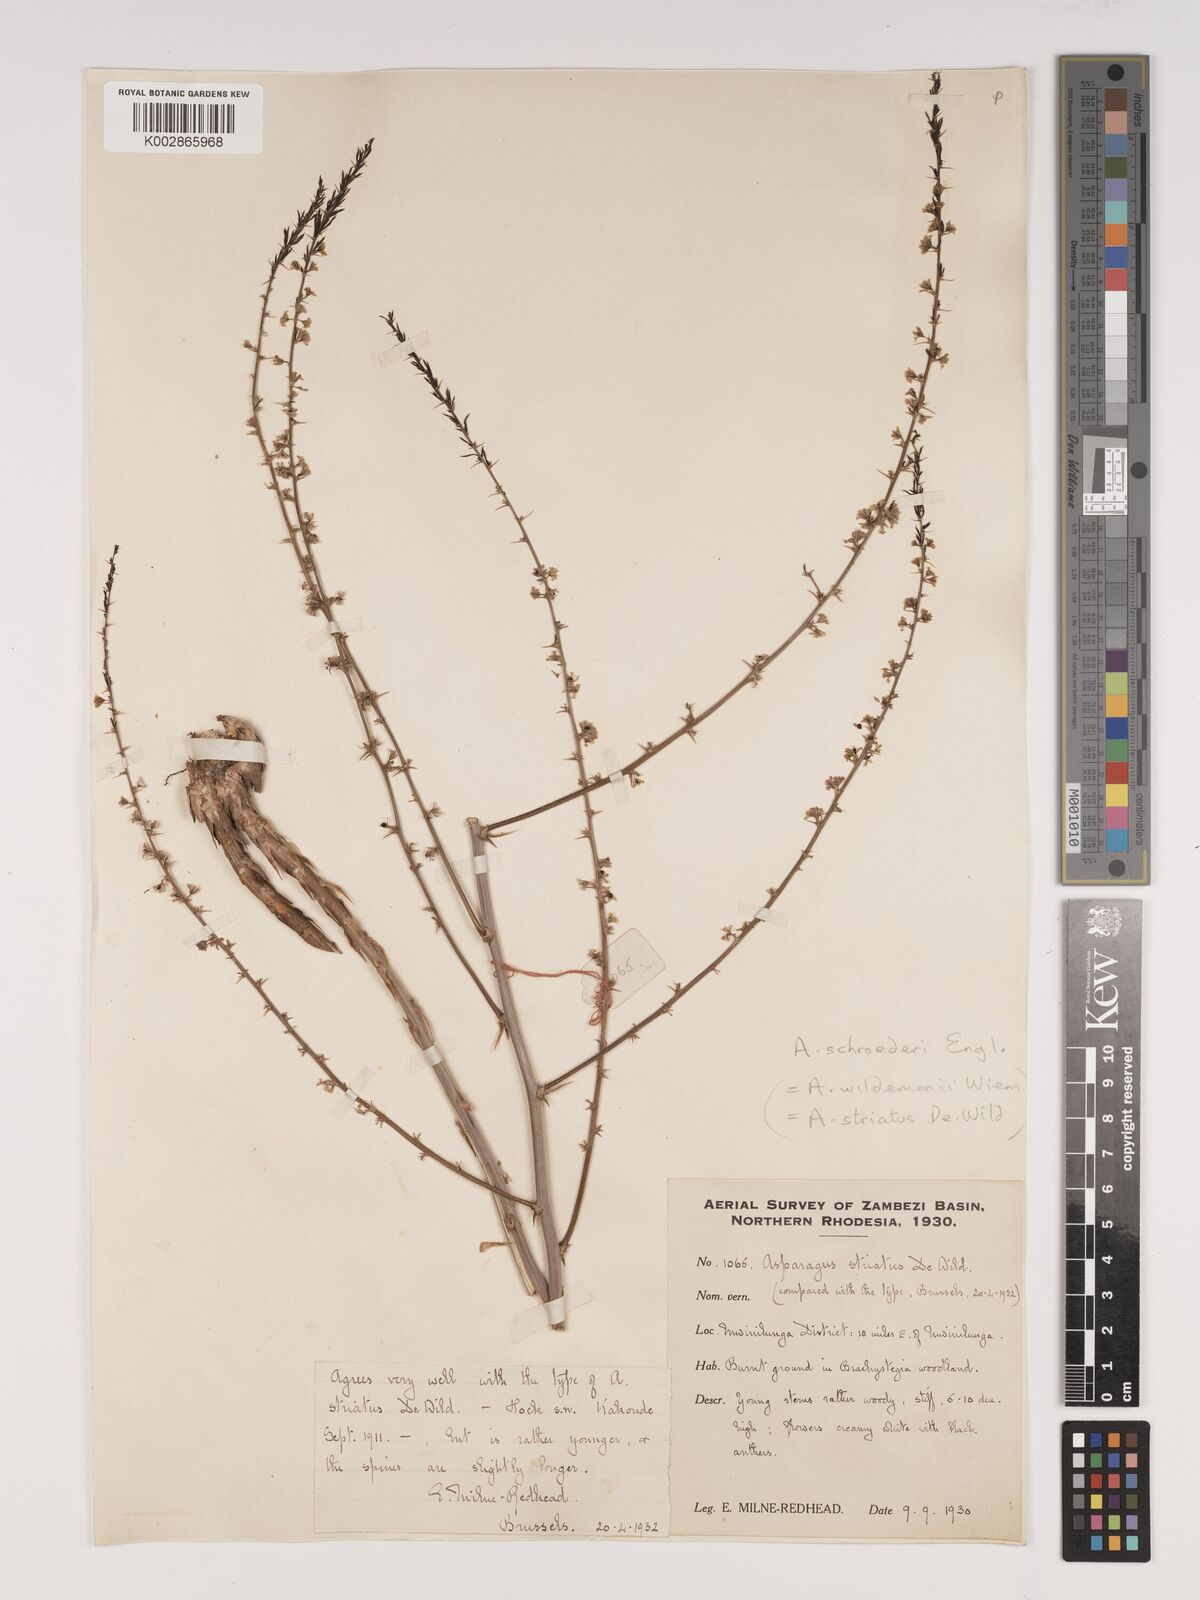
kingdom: Plantae
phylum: Tracheophyta
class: Liliopsida
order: Asparagales
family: Asparagaceae
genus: Asparagus
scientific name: Asparagus schroederi
